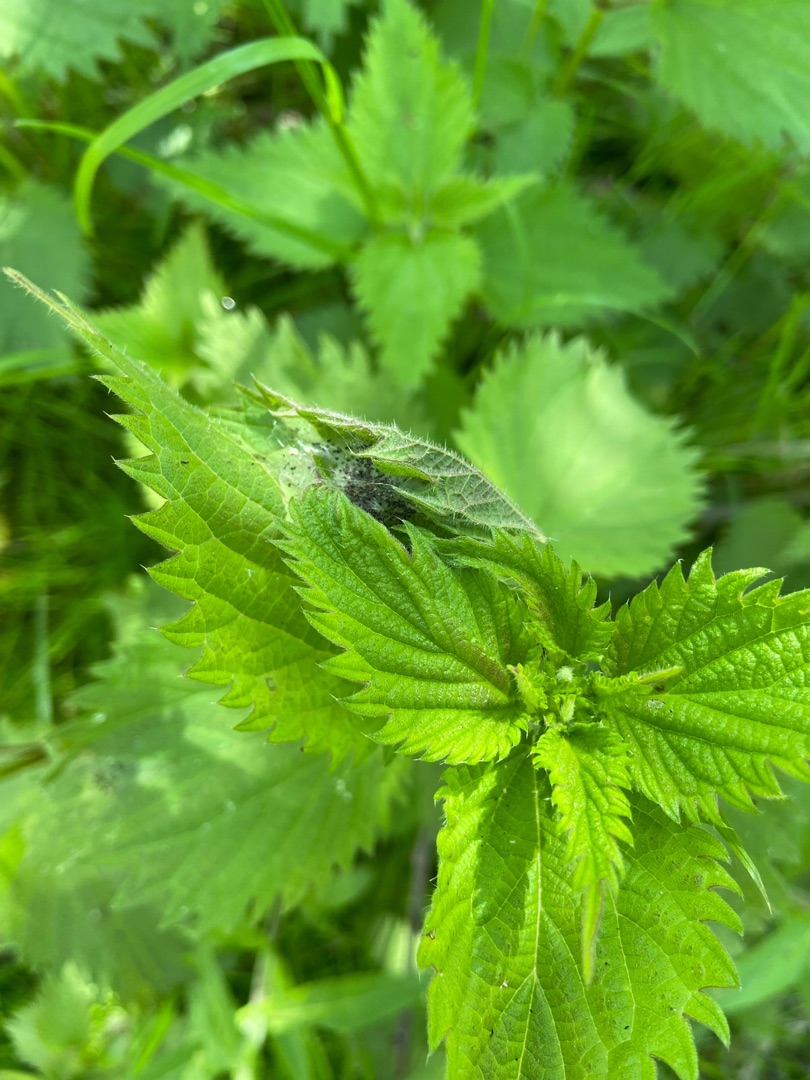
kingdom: Plantae
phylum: Tracheophyta
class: Magnoliopsida
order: Lamiales
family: Lamiaceae
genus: Lycopus
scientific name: Lycopus europaeus
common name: Sværtevæld
